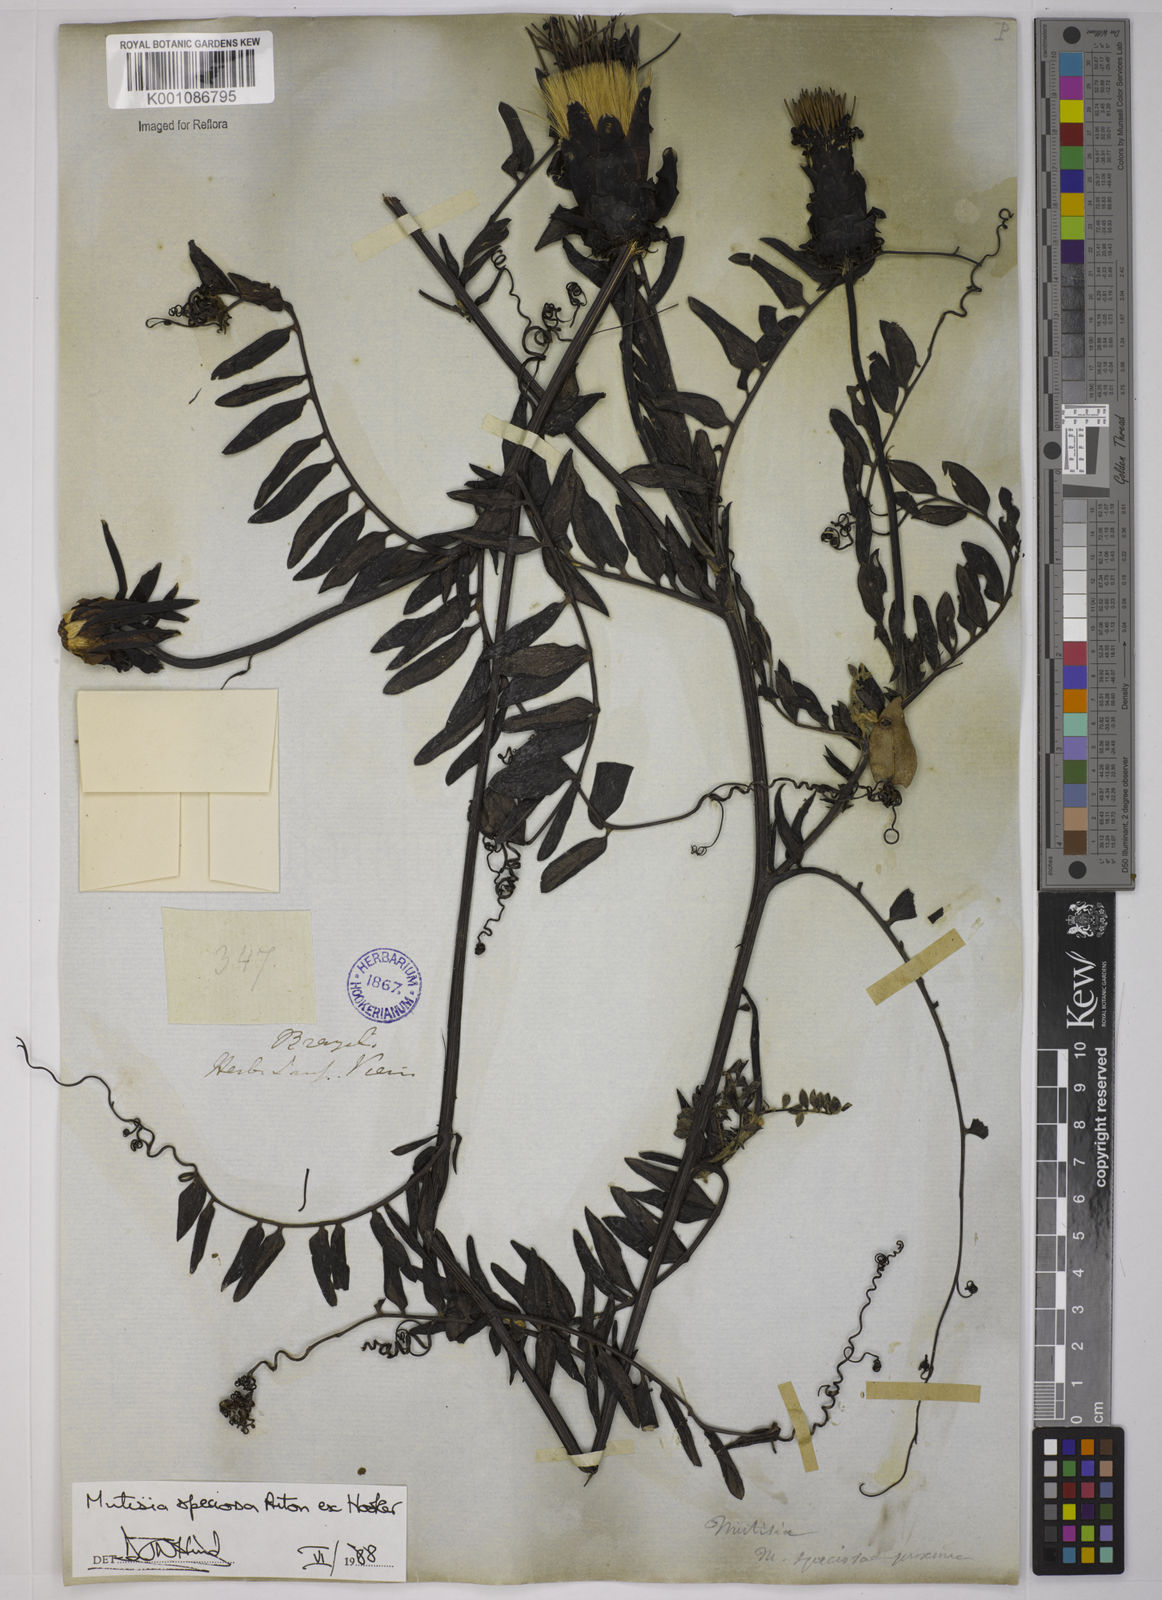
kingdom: Plantae
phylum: Tracheophyta
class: Magnoliopsida
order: Asterales
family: Asteraceae
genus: Mutisia
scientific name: Mutisia speciosa
